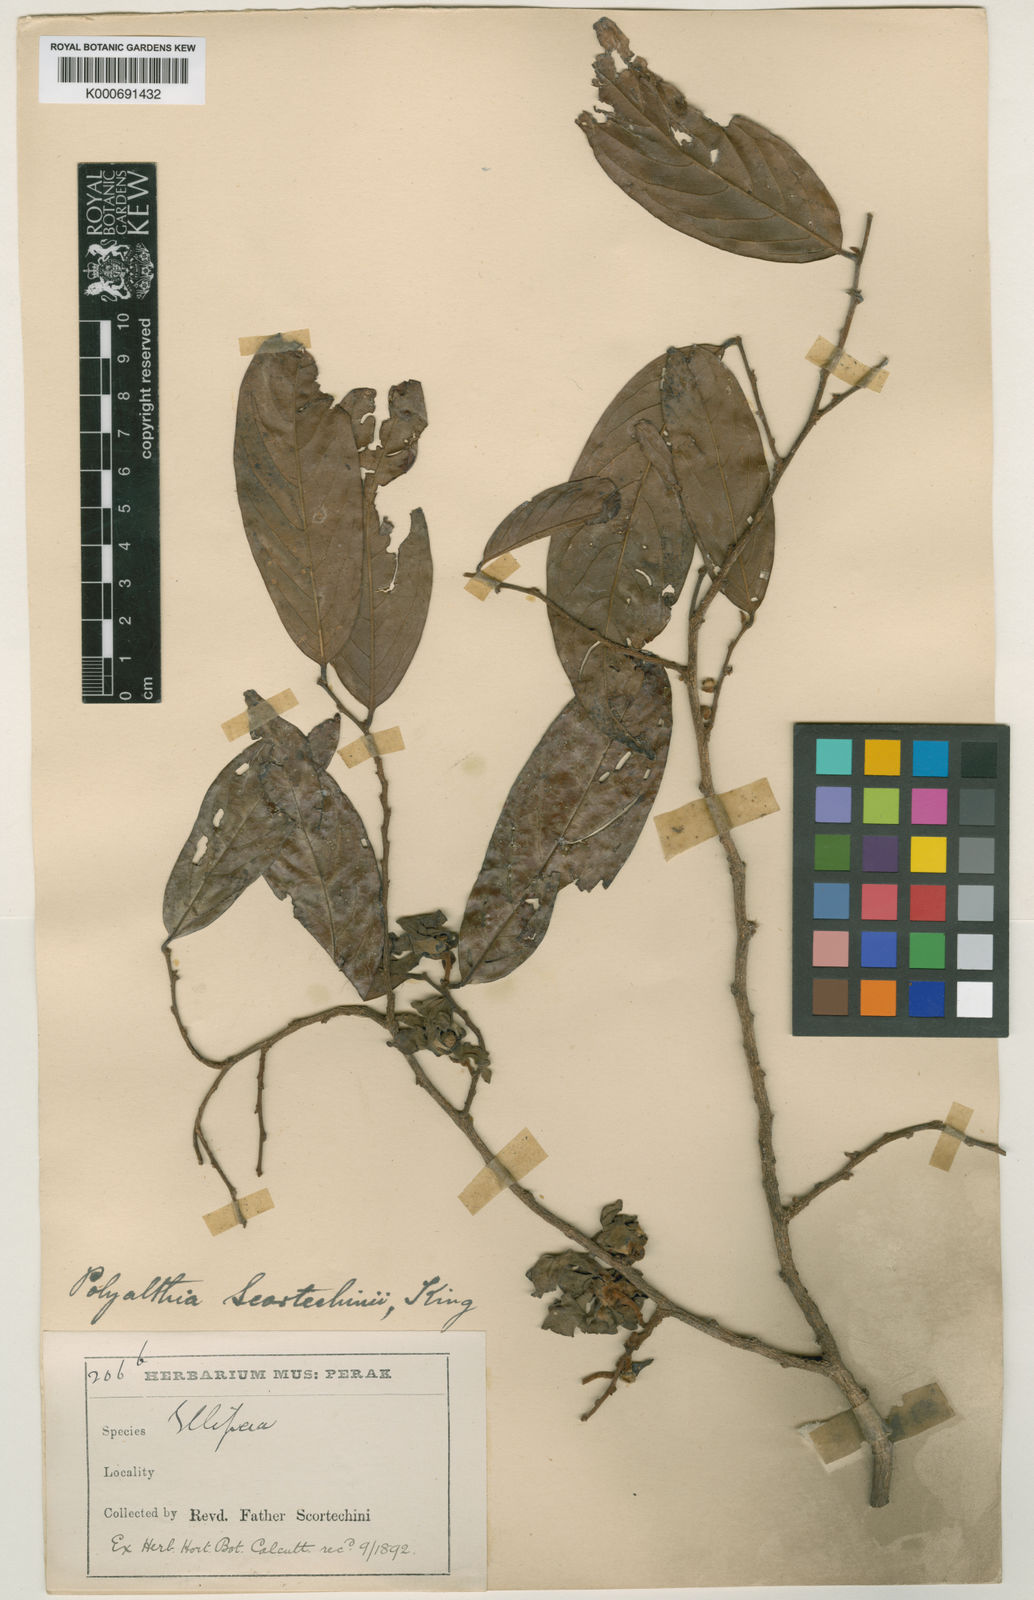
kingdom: Plantae
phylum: Tracheophyta
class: Magnoliopsida
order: Magnoliales
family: Annonaceae
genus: Hubera
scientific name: Hubera rumphii
